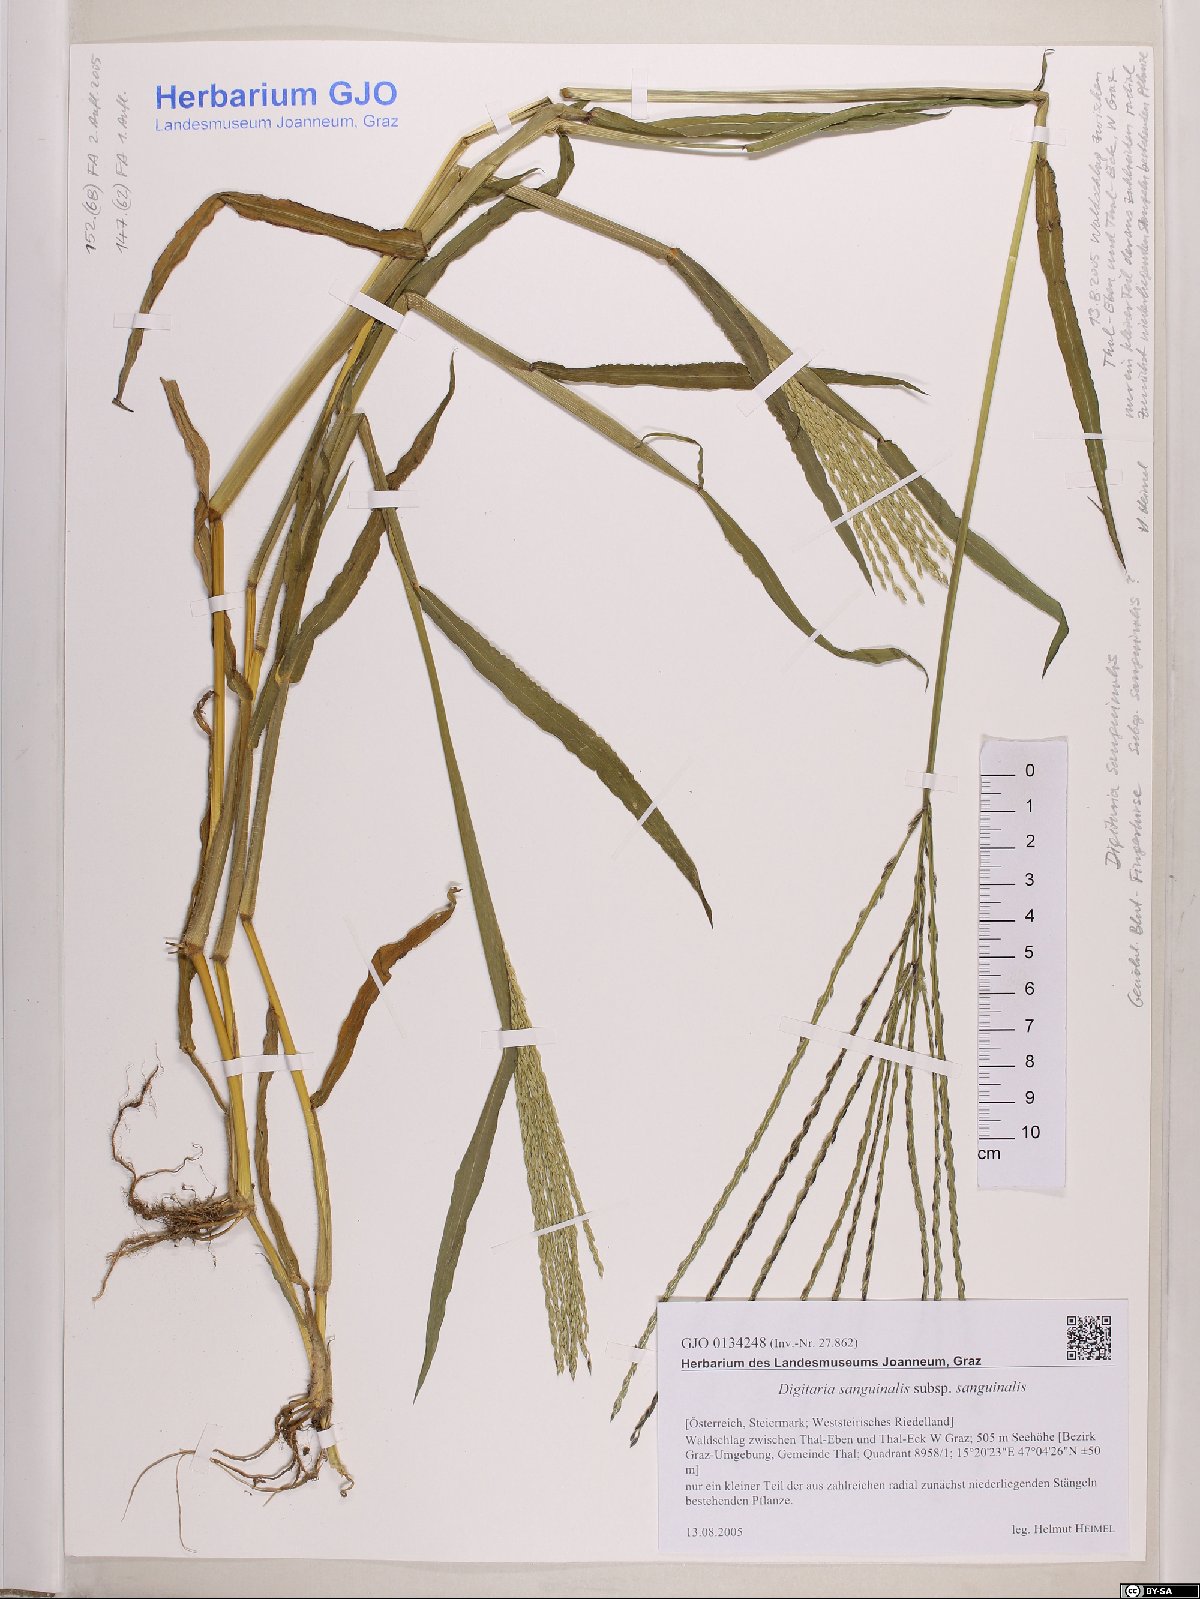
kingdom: Plantae
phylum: Tracheophyta
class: Liliopsida
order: Poales
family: Poaceae
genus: Digitaria
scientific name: Digitaria sanguinalis
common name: Hairy crabgrass
